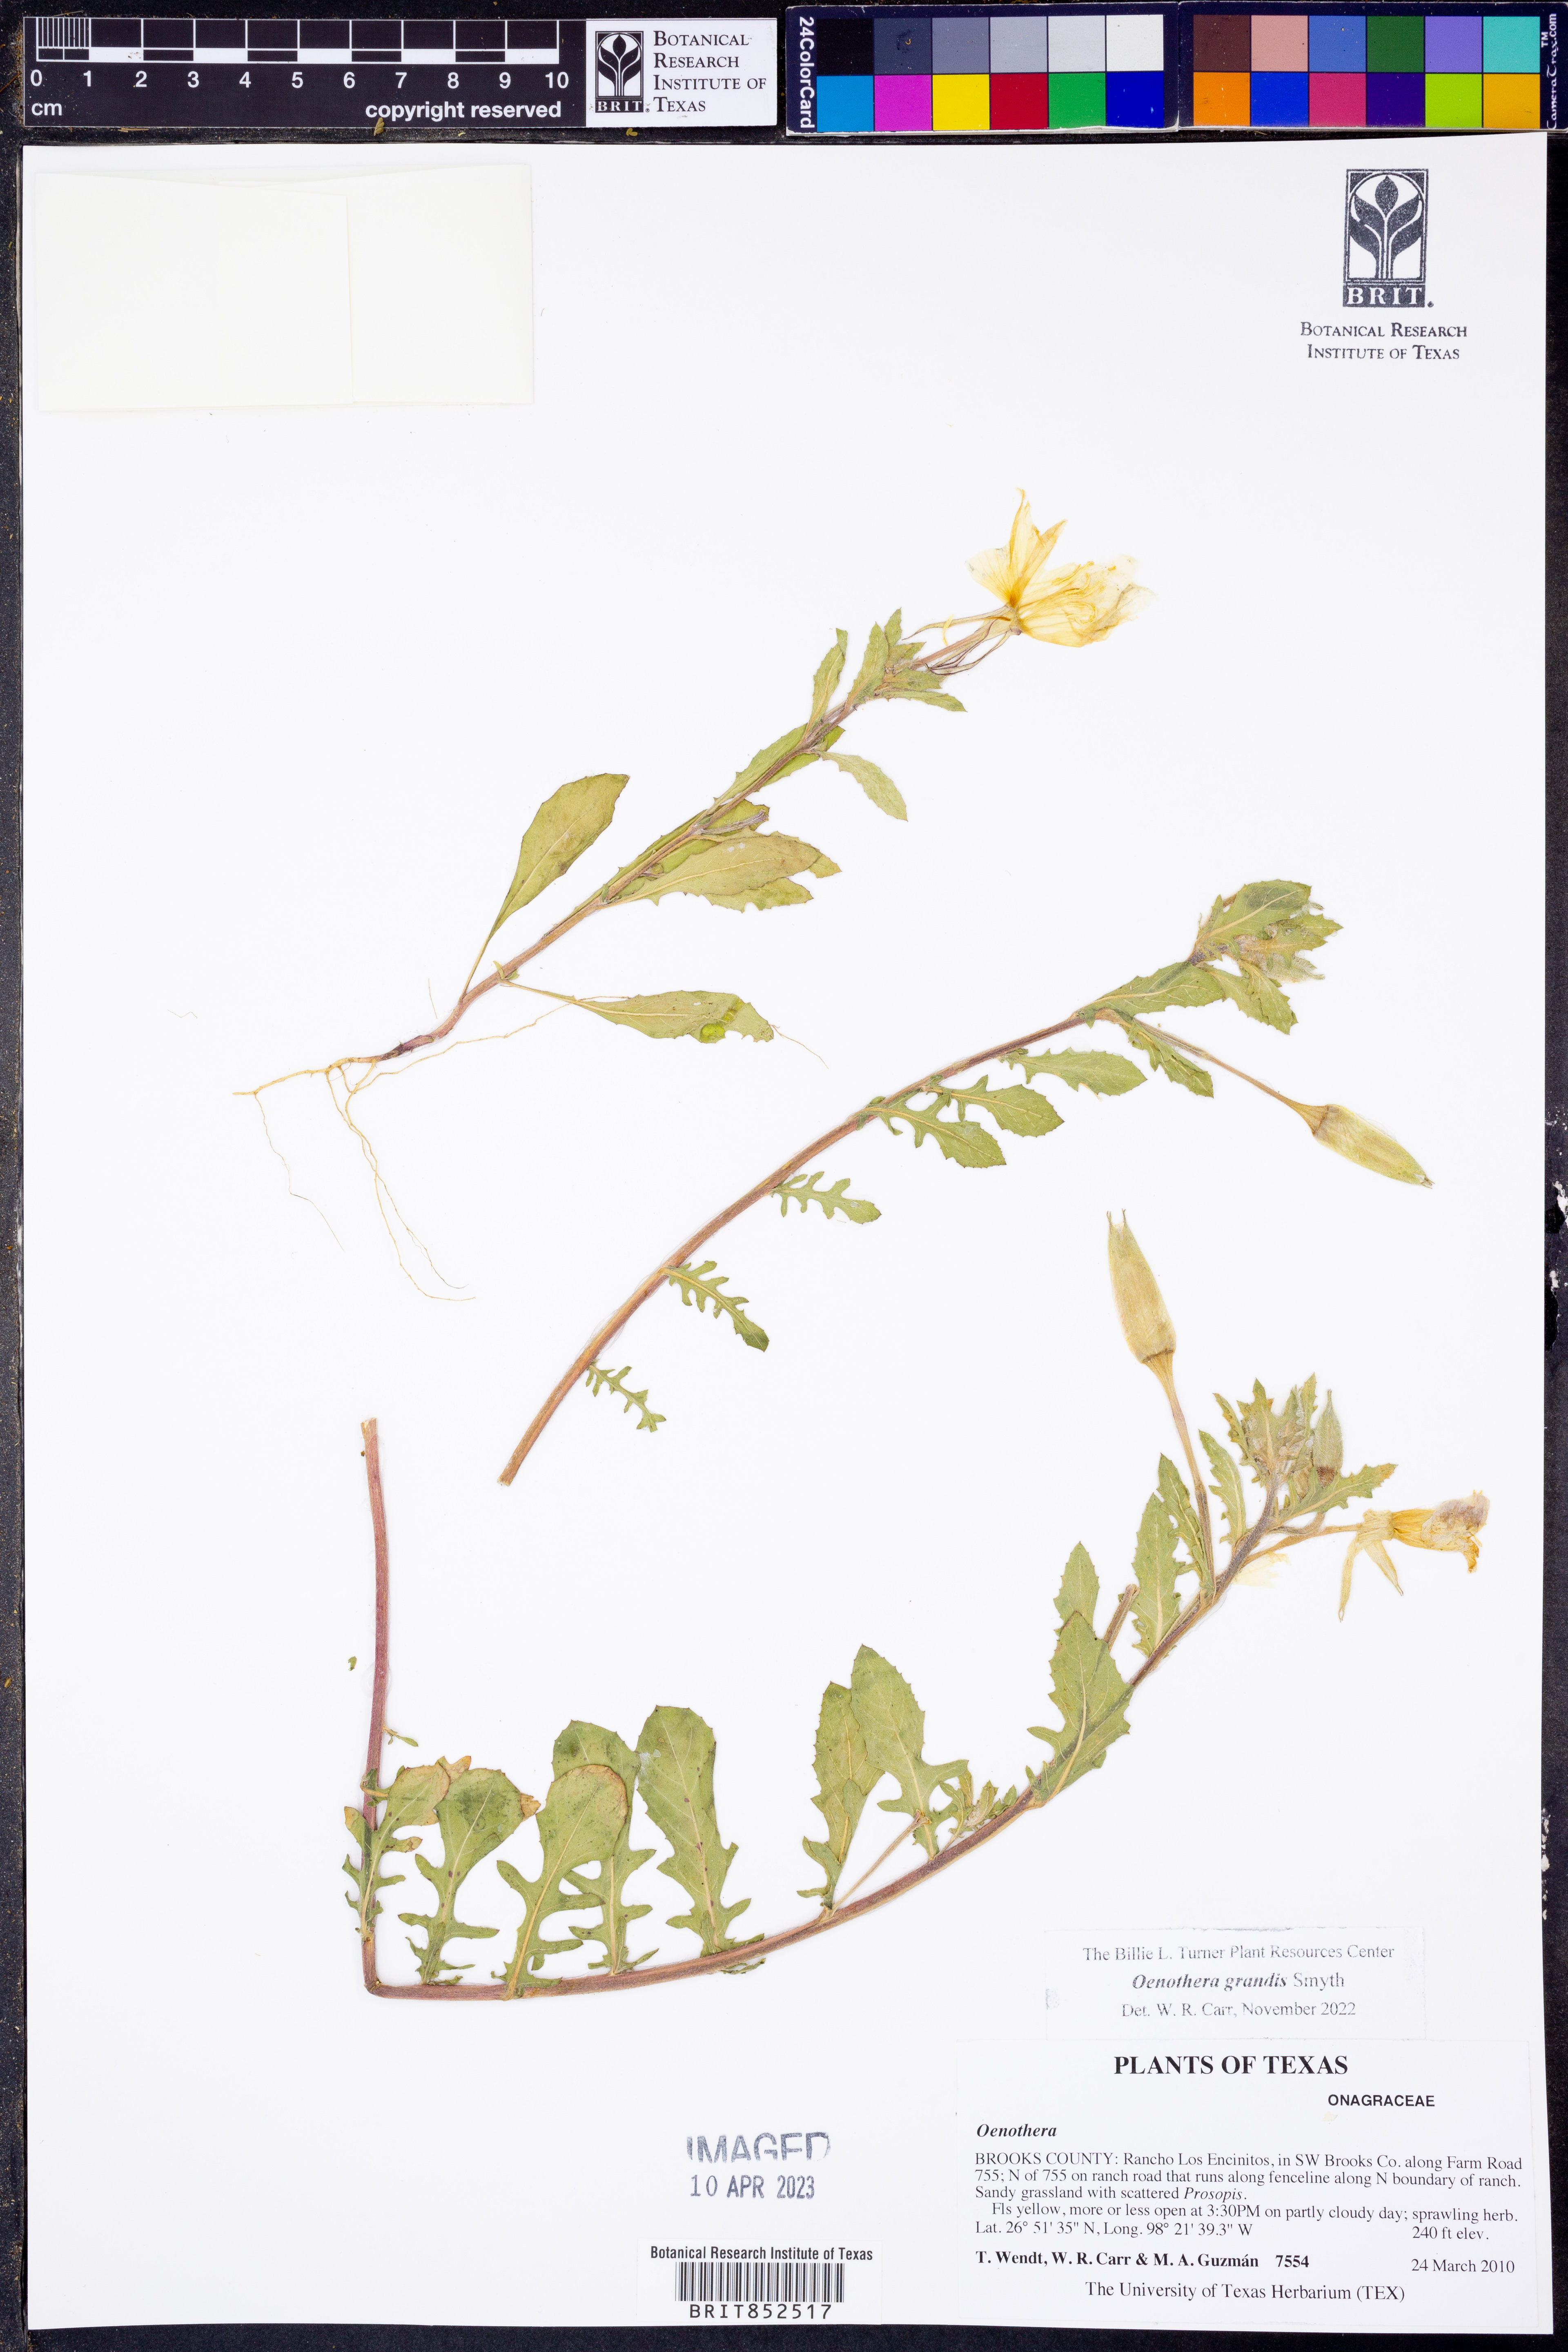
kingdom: Plantae
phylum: Tracheophyta
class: Magnoliopsida
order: Myrtales
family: Onagraceae
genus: Oenothera
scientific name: Oenothera grandis
